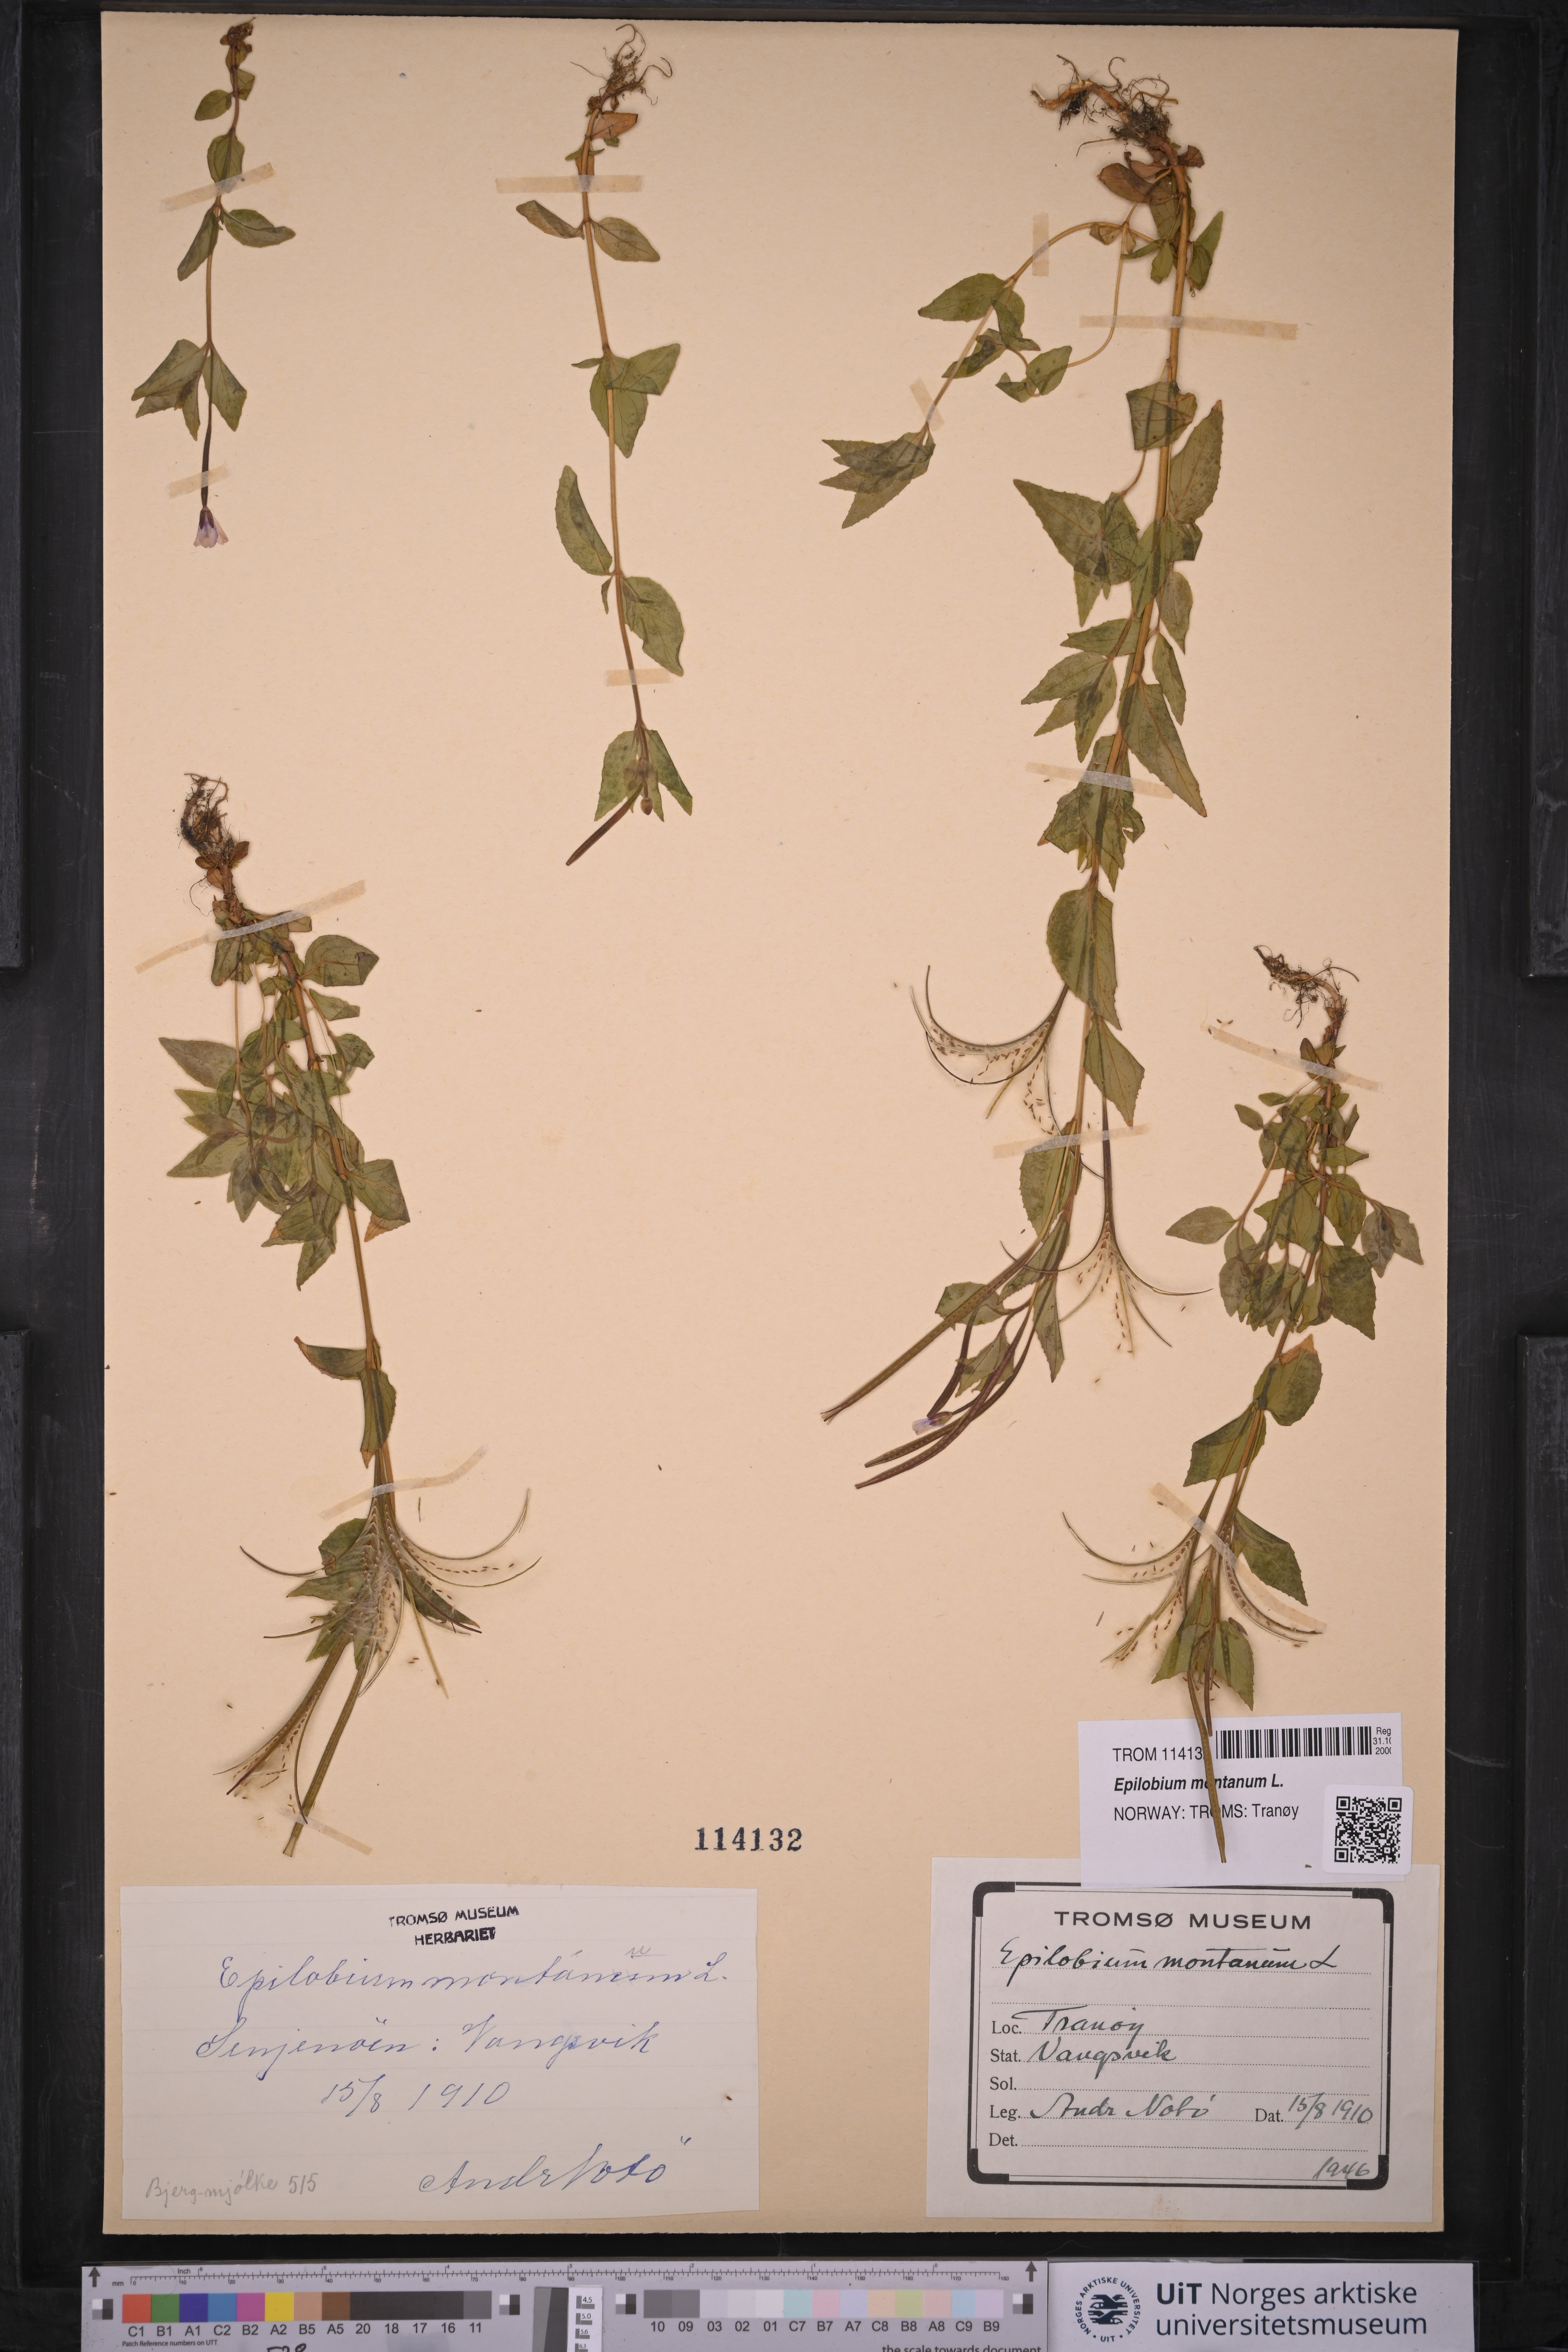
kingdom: Plantae
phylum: Tracheophyta
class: Magnoliopsida
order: Myrtales
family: Onagraceae
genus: Epilobium
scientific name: Epilobium montanum
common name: Broad-leaved willowherb
